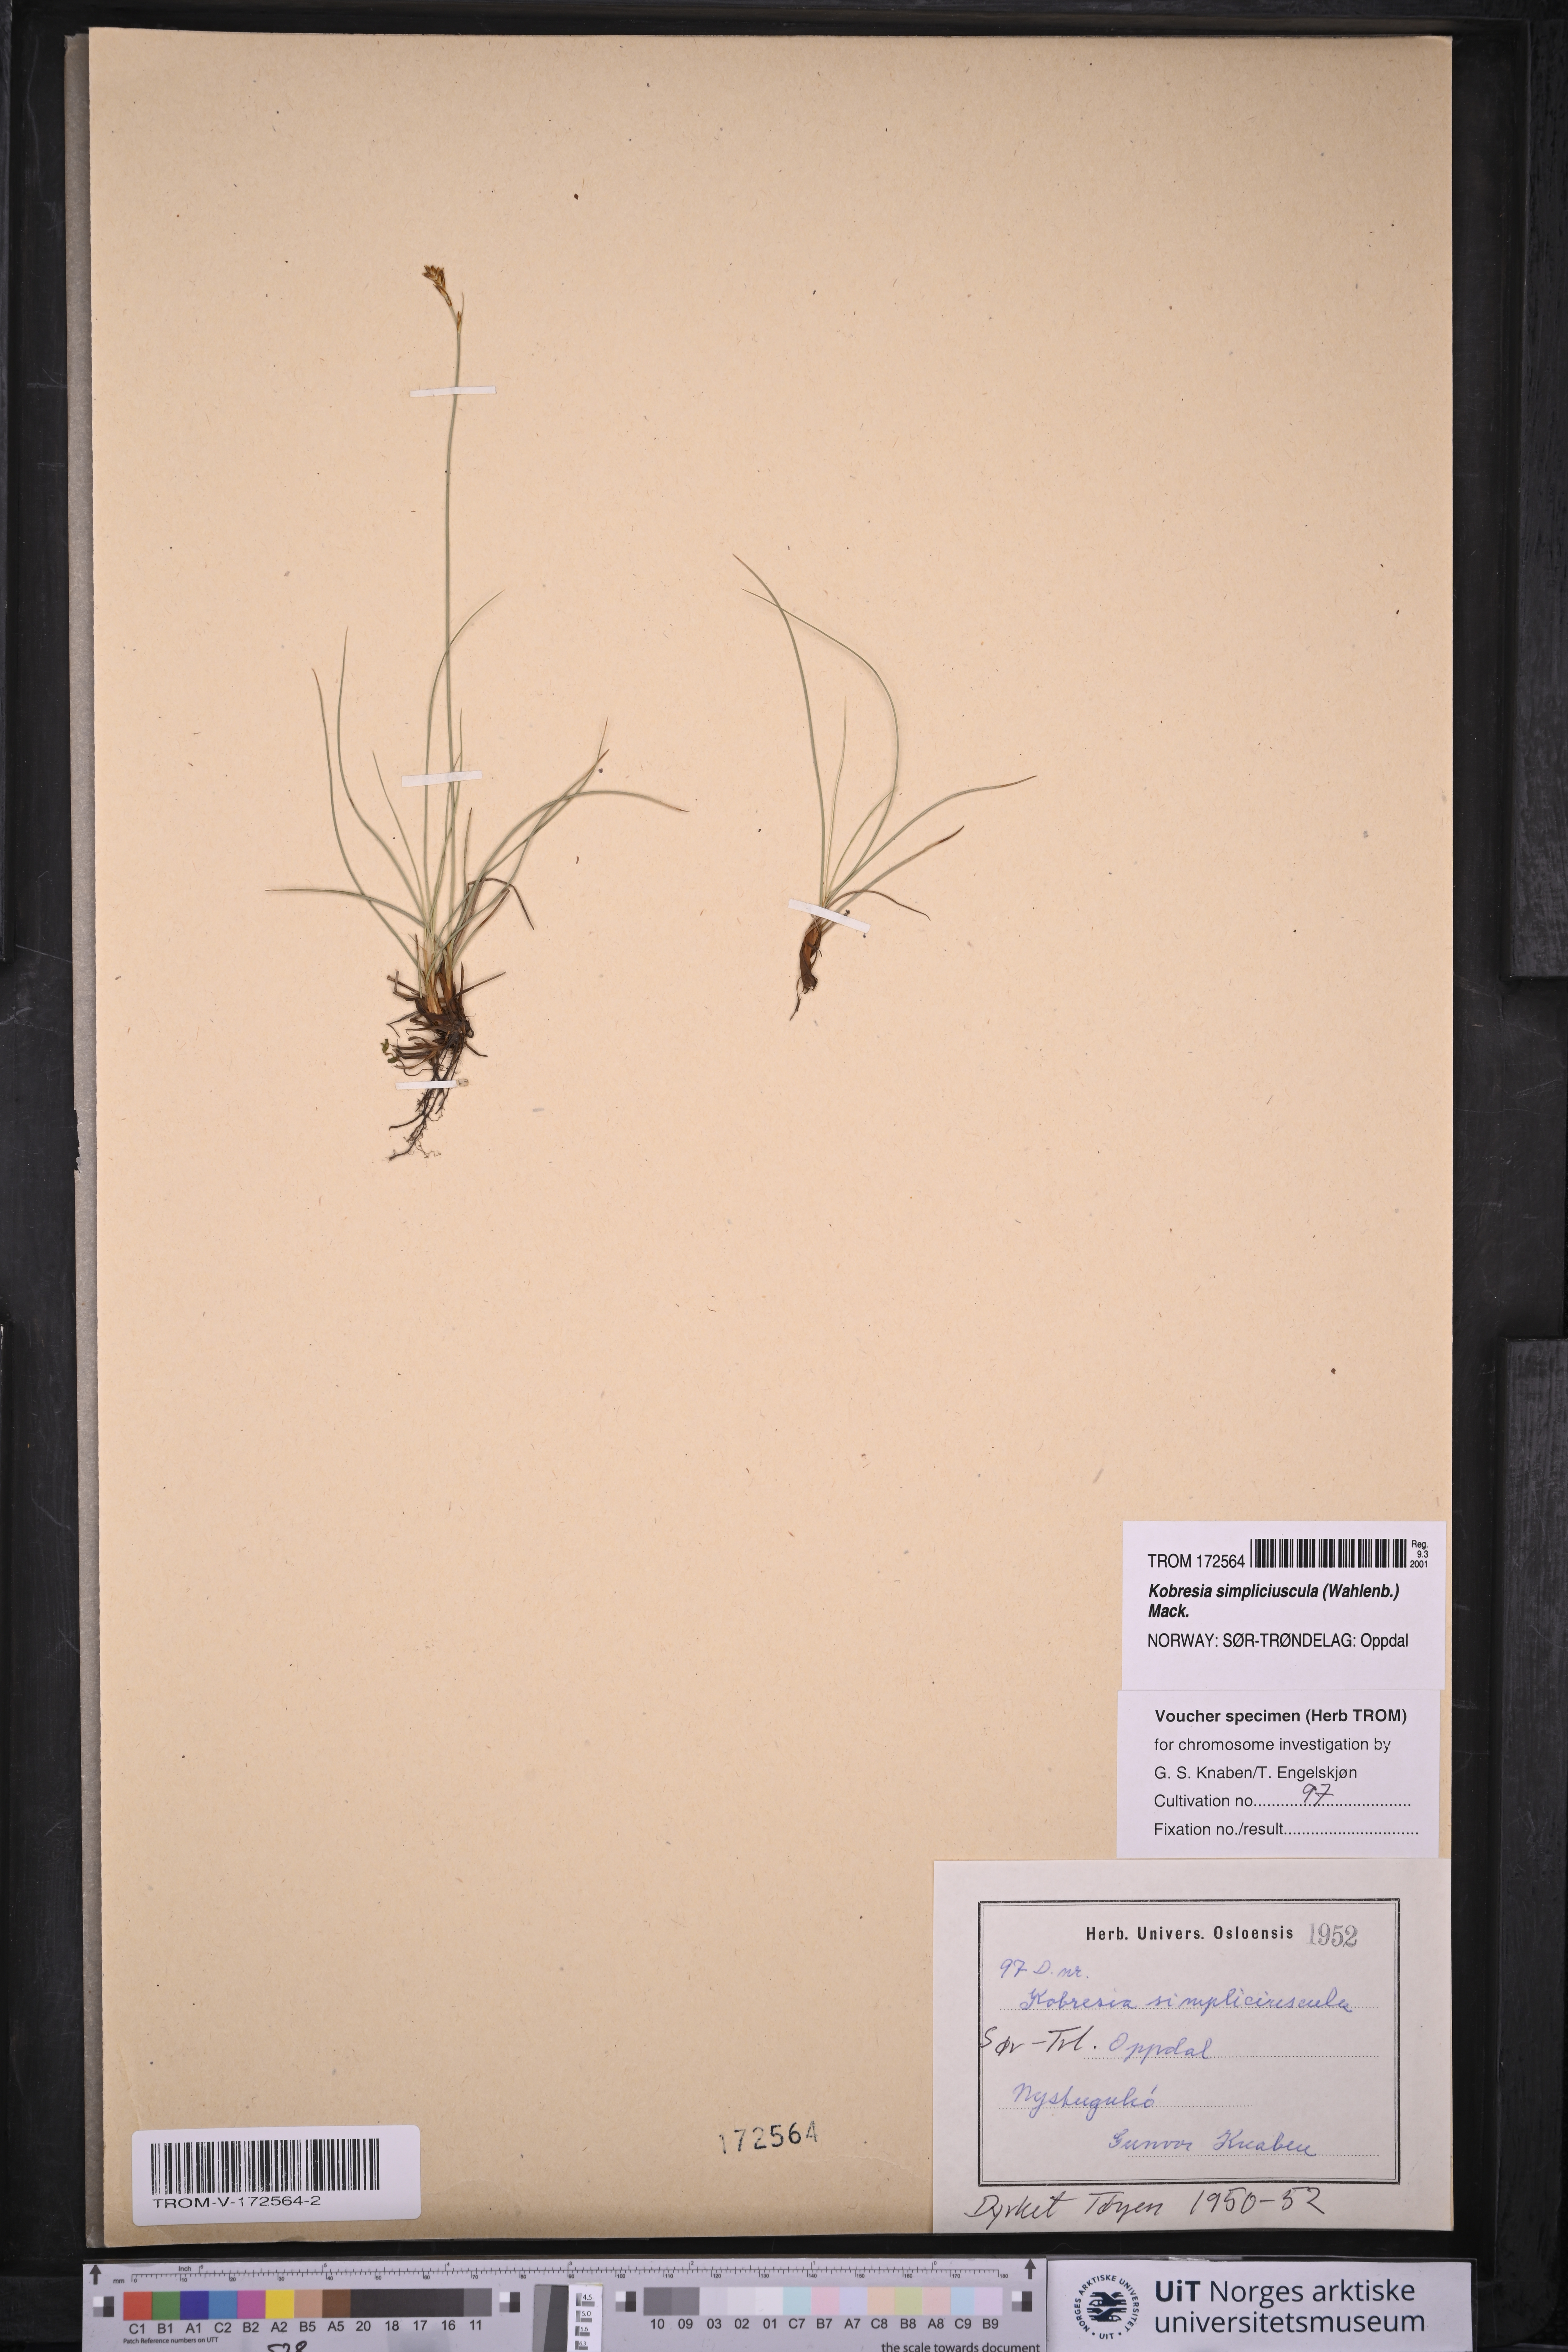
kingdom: Plantae
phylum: Tracheophyta
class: Liliopsida
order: Poales
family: Cyperaceae
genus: Carex
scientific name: Carex simpliciuscula
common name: Simple bog sedge
